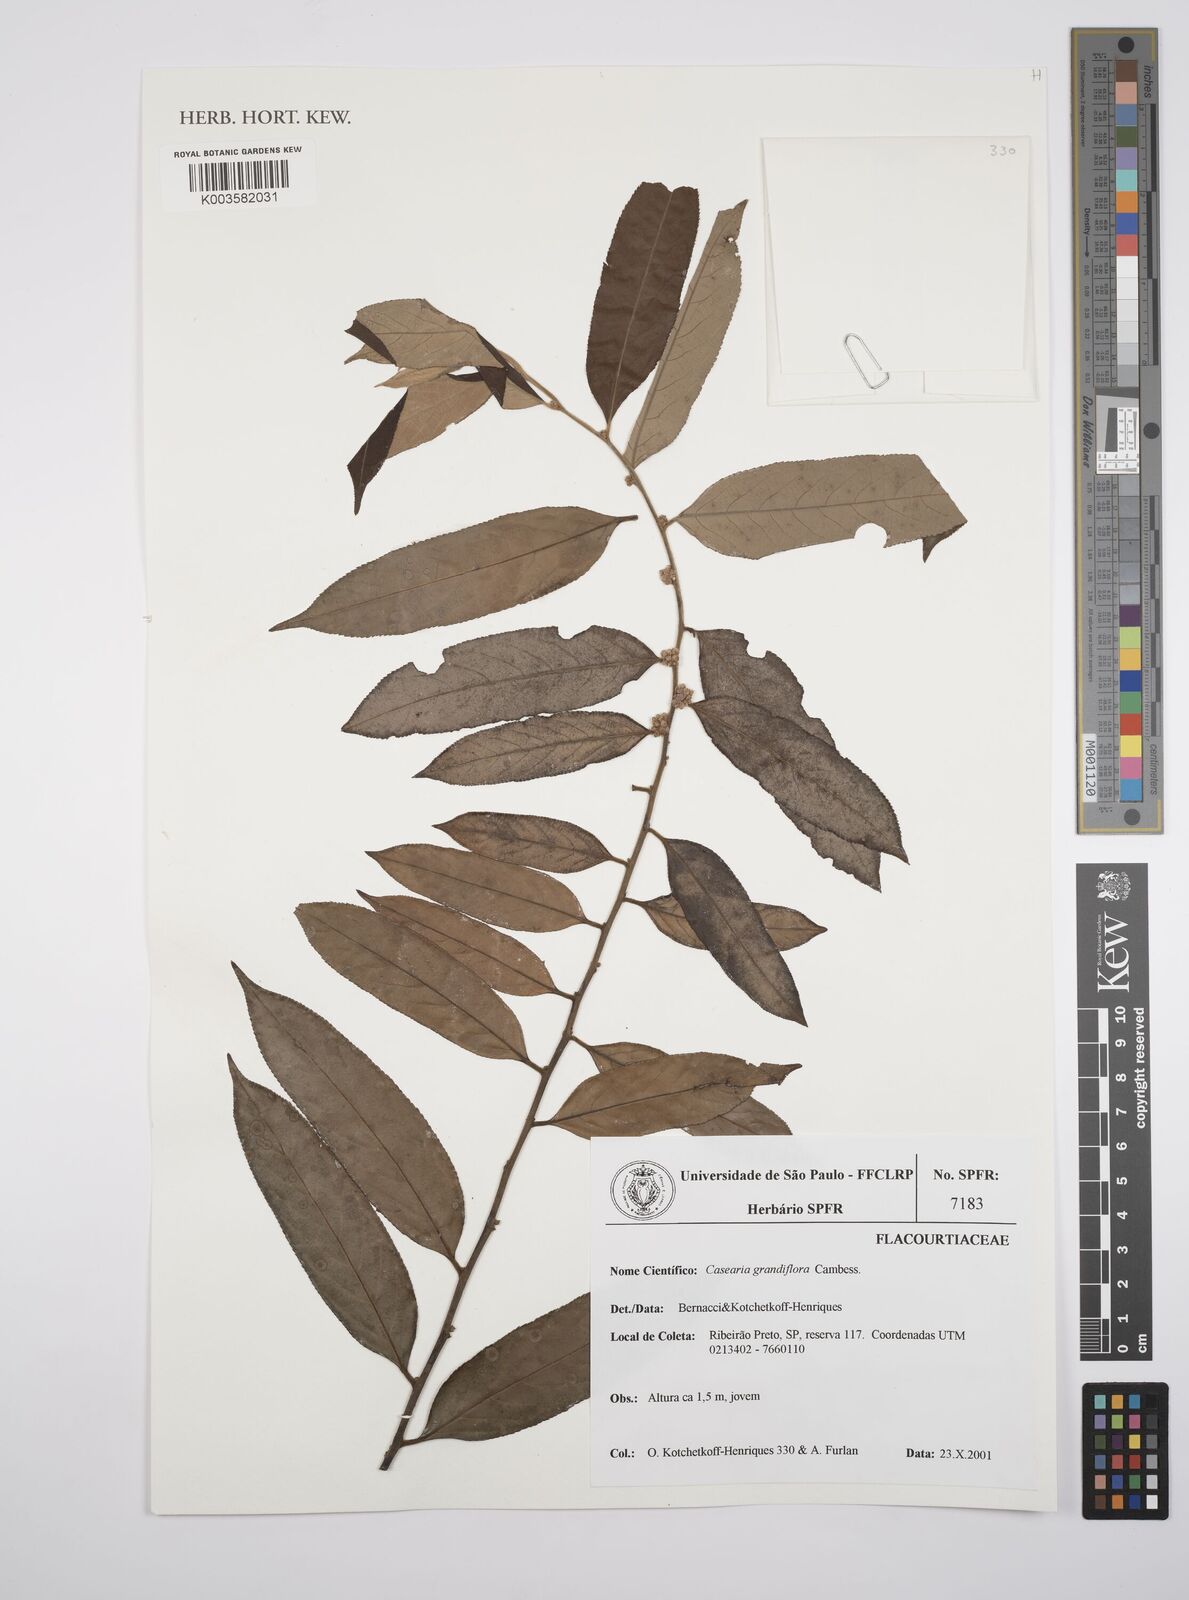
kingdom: Plantae
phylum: Tracheophyta
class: Magnoliopsida
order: Malpighiales
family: Salicaceae
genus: Casearia
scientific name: Casearia grandiflora
